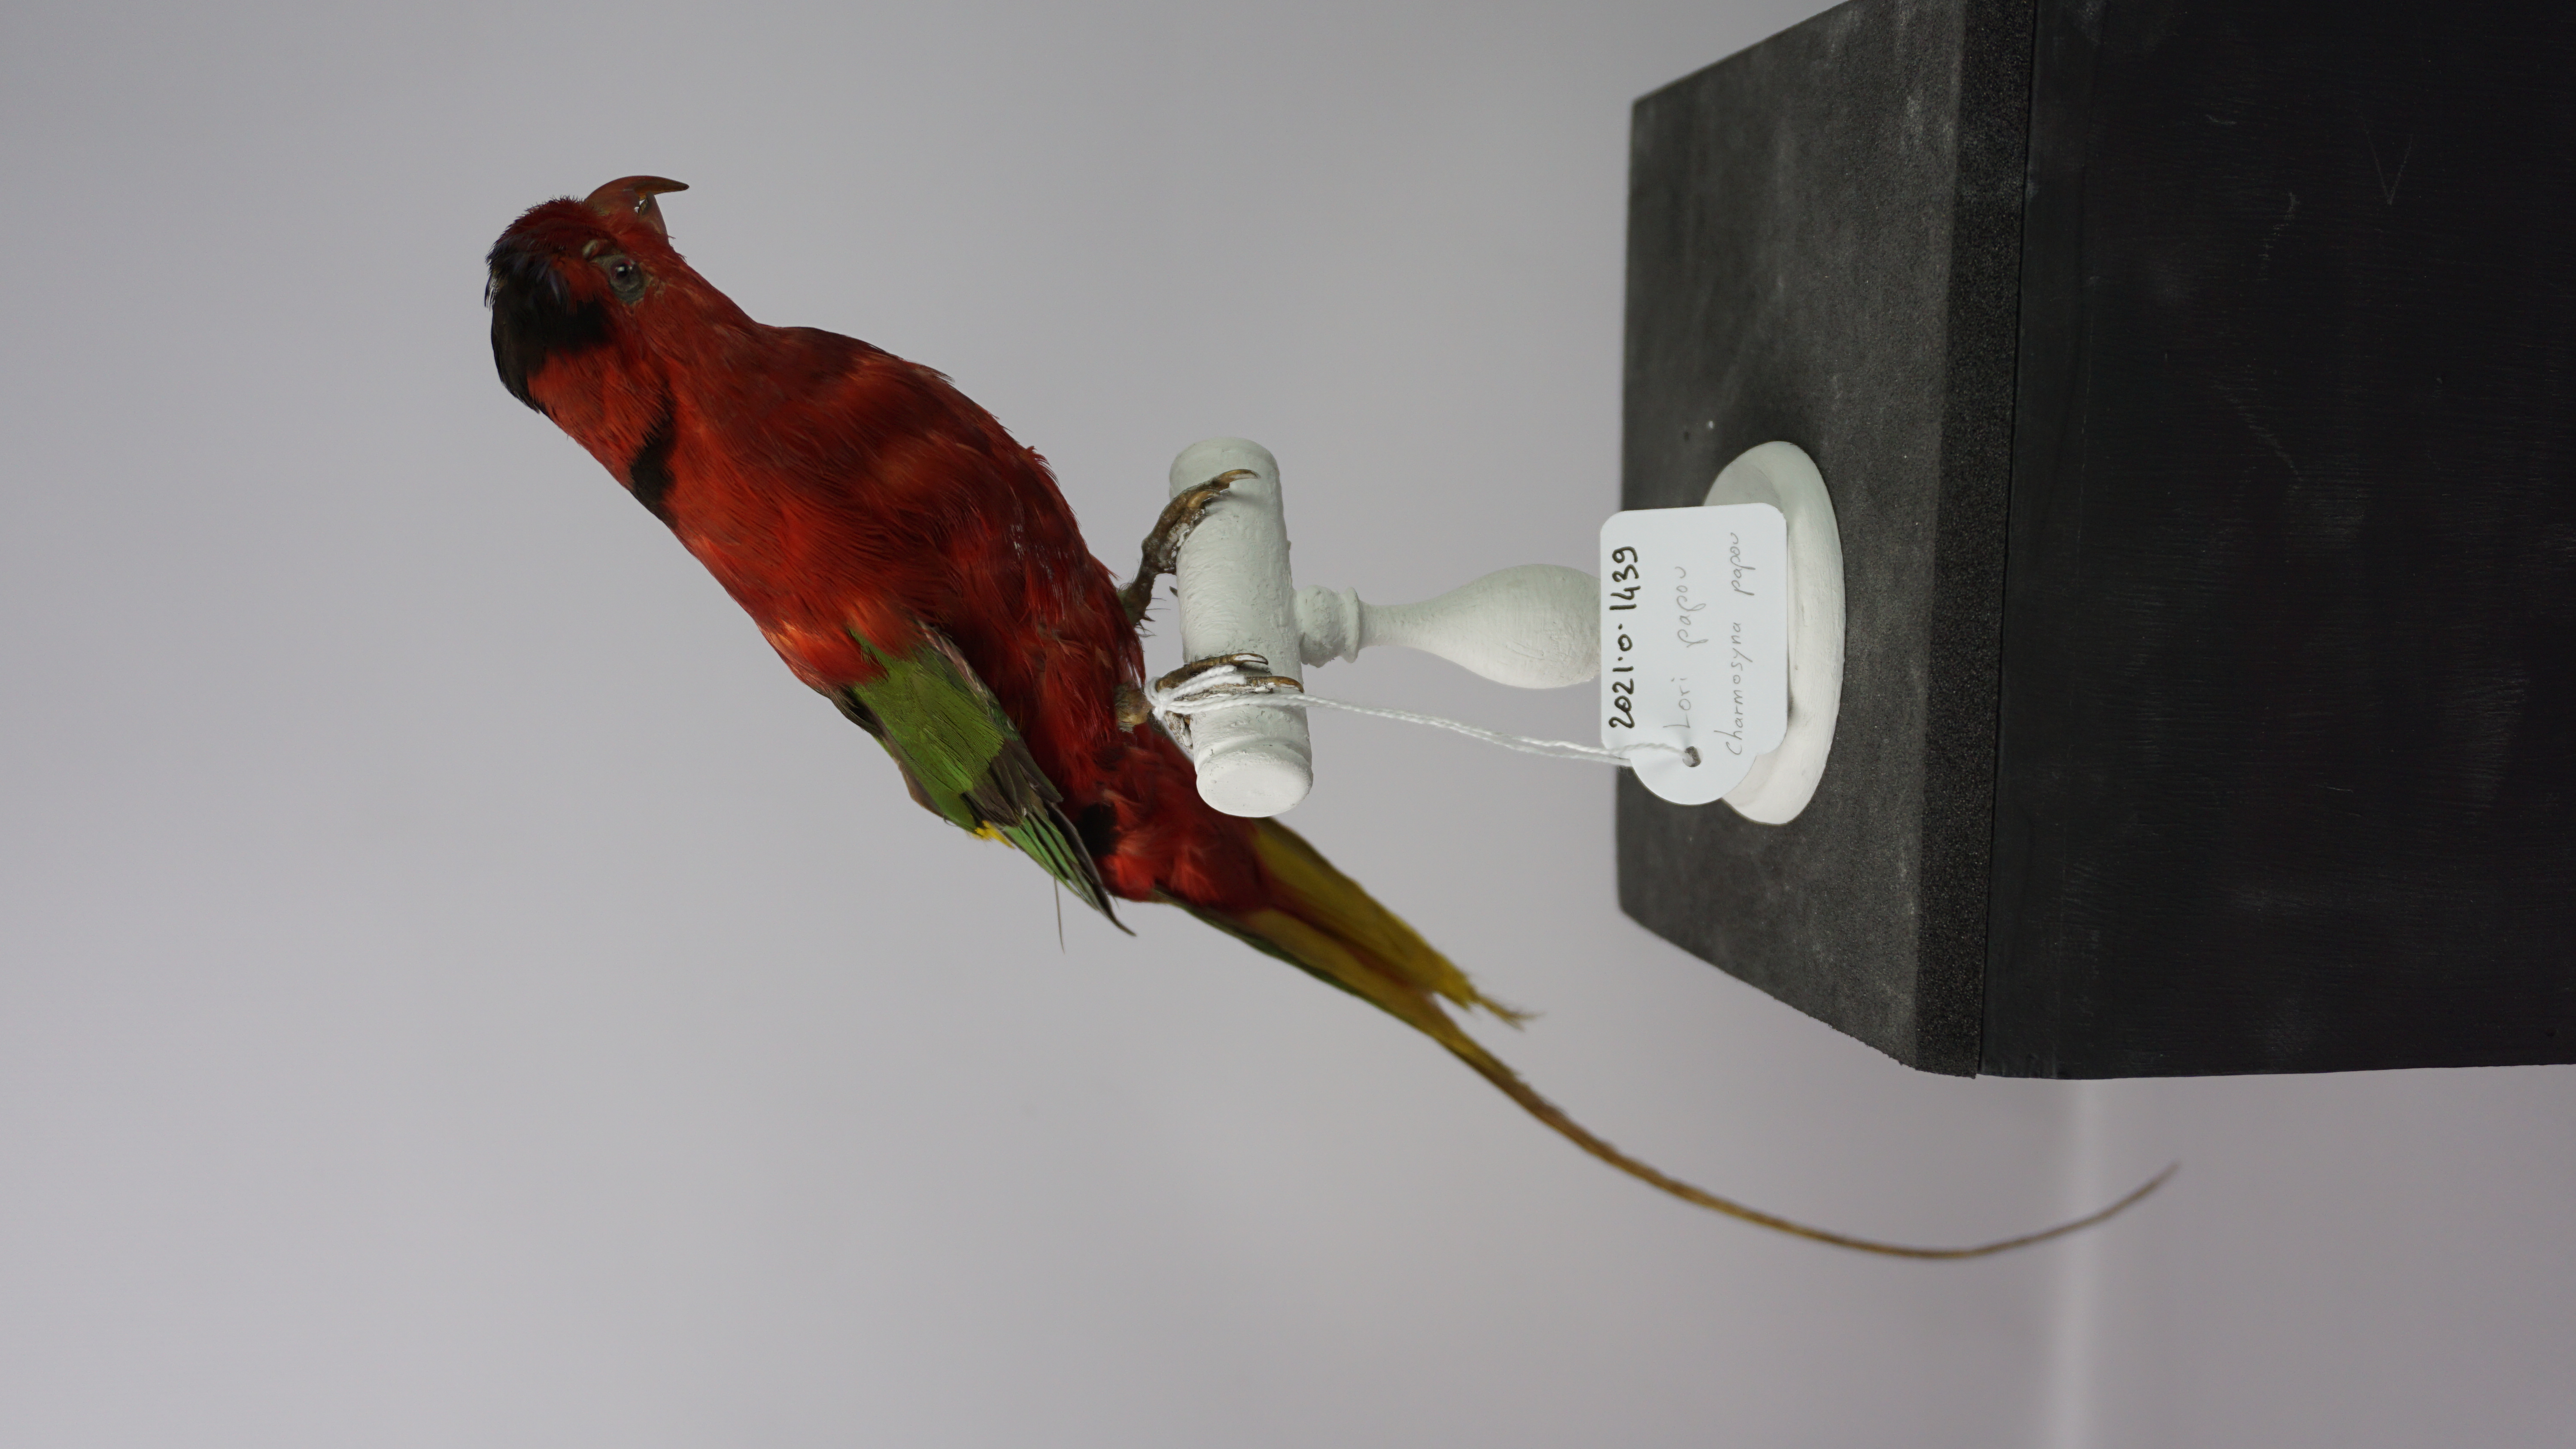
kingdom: Animalia
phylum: Chordata
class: Aves
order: Psittaciformes
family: Psittacidae
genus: Charmosyna
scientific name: Charmosyna papou
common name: Papuan lorikeet
